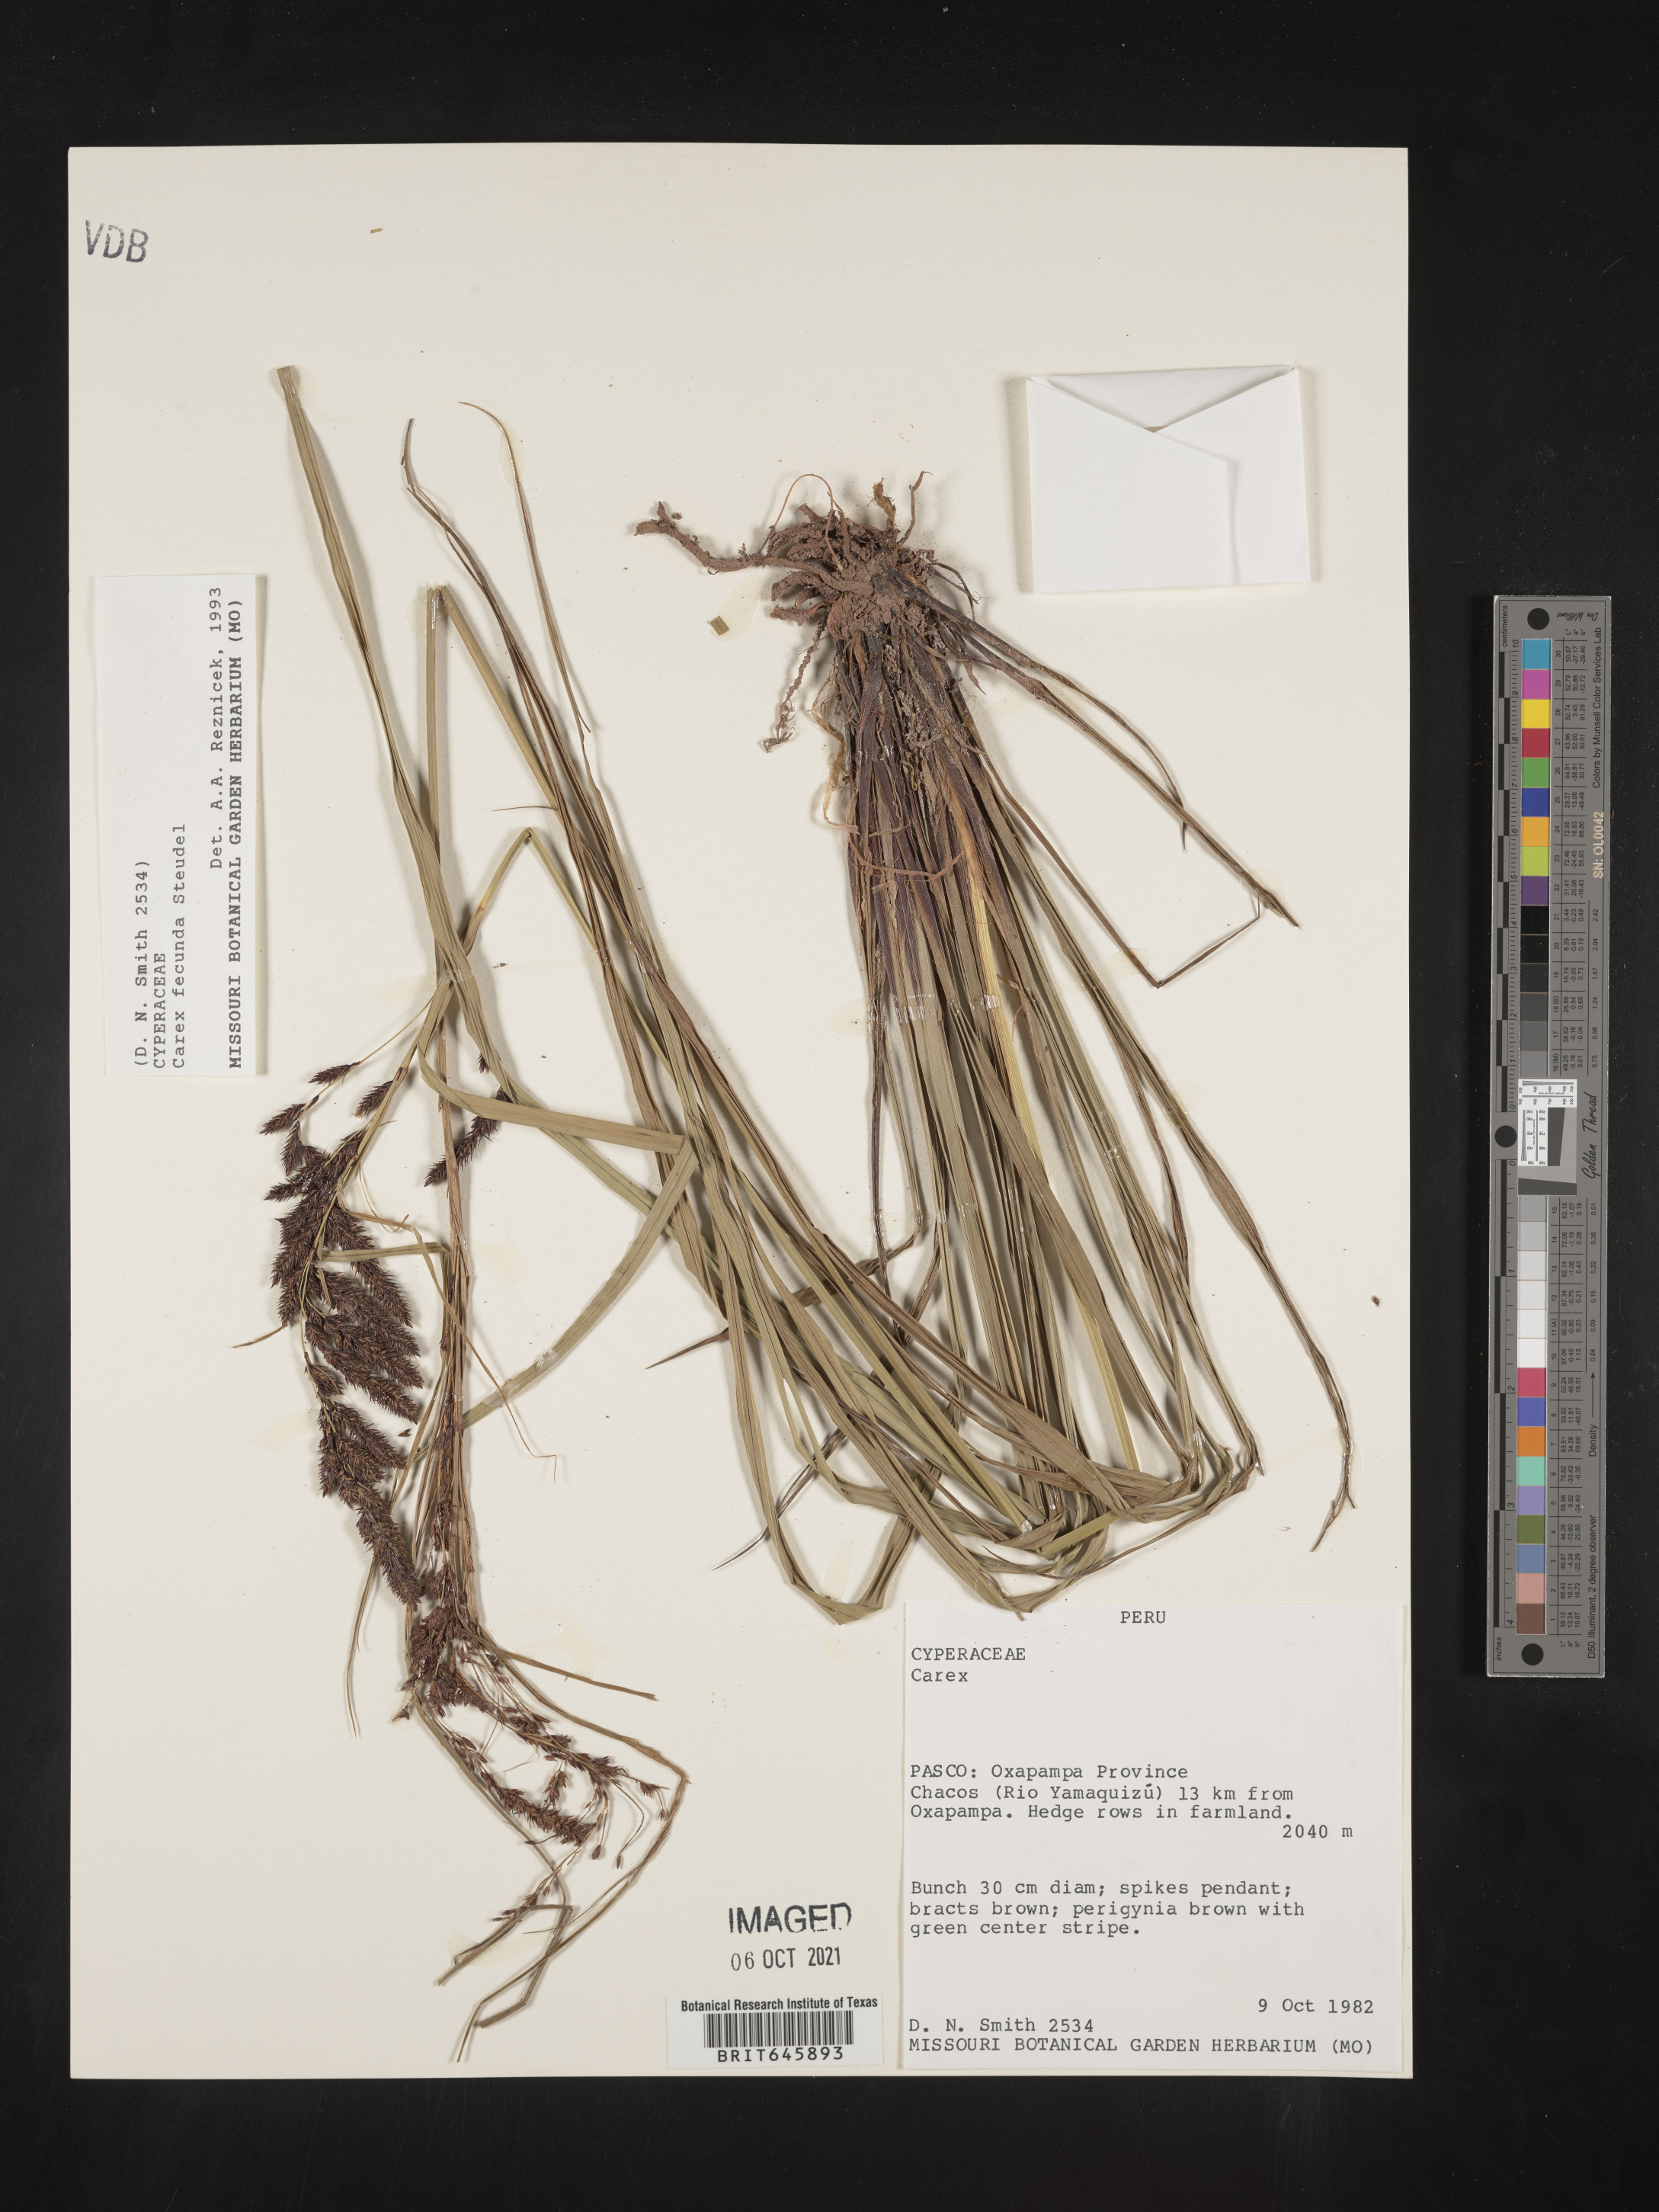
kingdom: Plantae
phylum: Tracheophyta
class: Liliopsida
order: Poales
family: Cyperaceae
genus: Carex
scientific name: Carex fecunda
